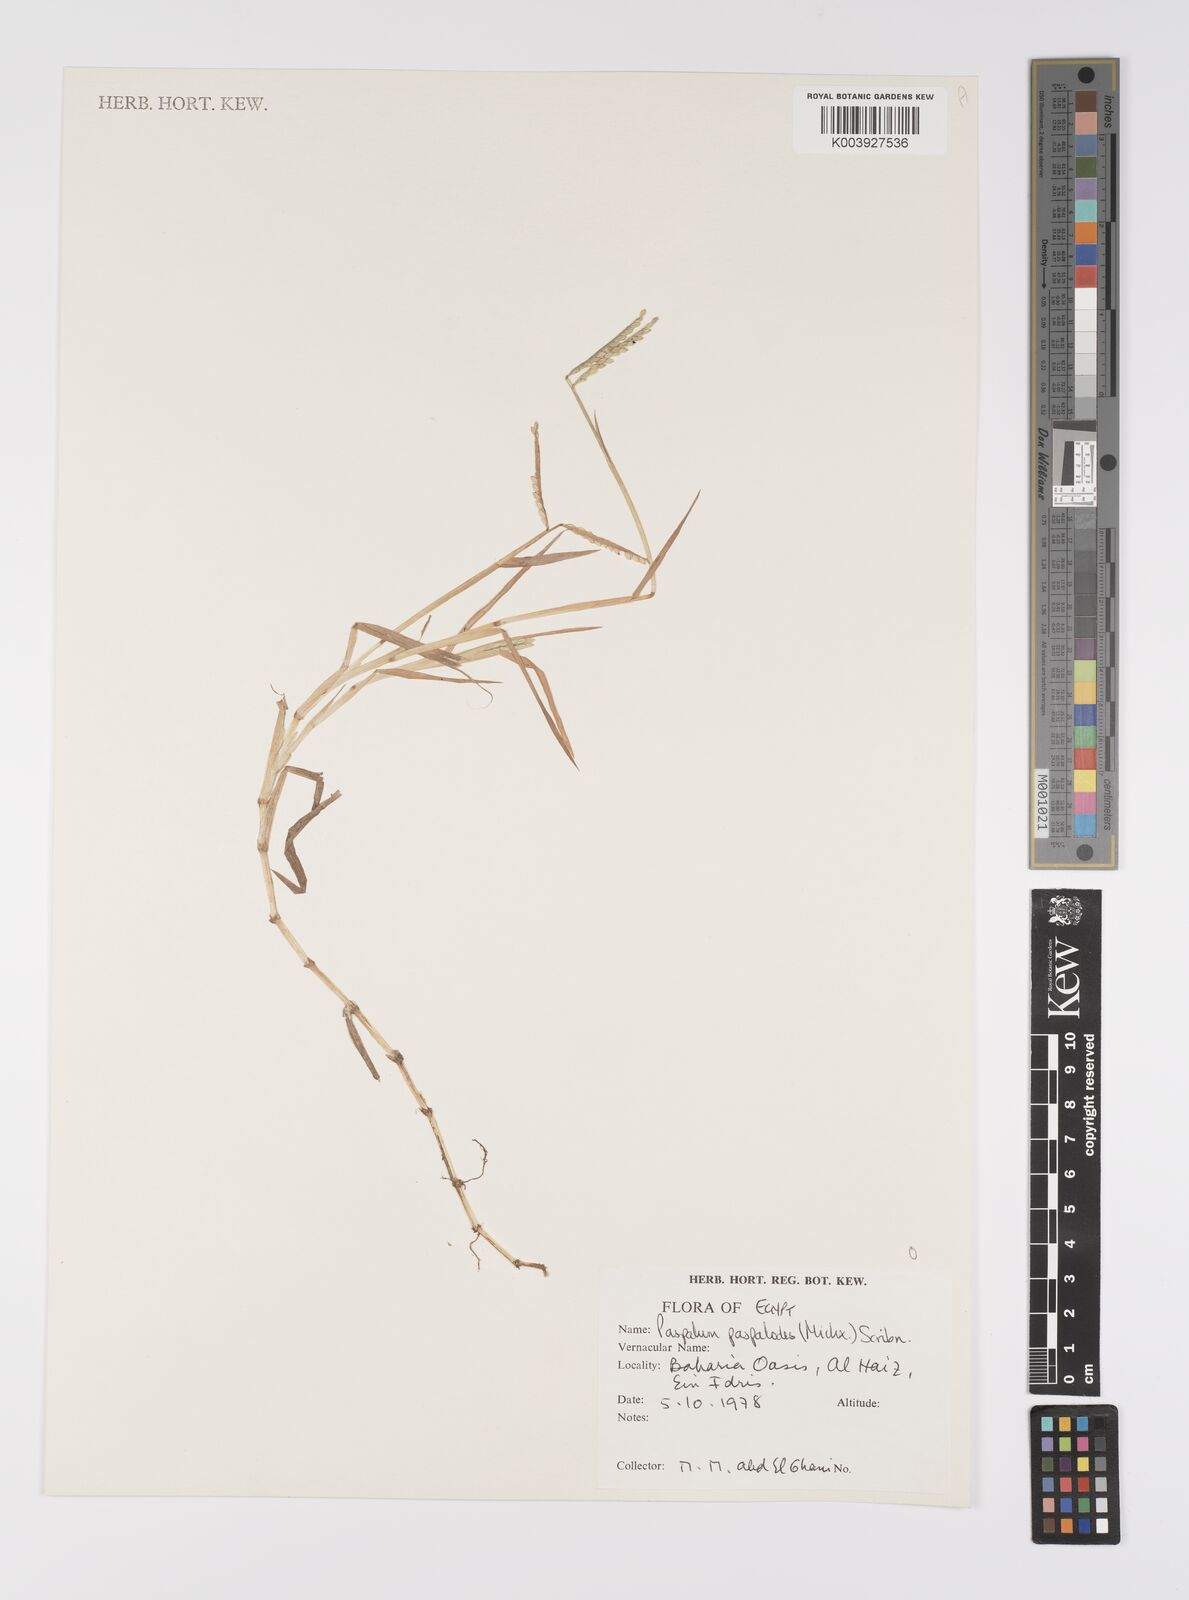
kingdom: Plantae
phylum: Tracheophyta
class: Liliopsida
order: Poales
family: Poaceae
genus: Paspalum
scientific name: Paspalum distichum
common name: Knotgrass
